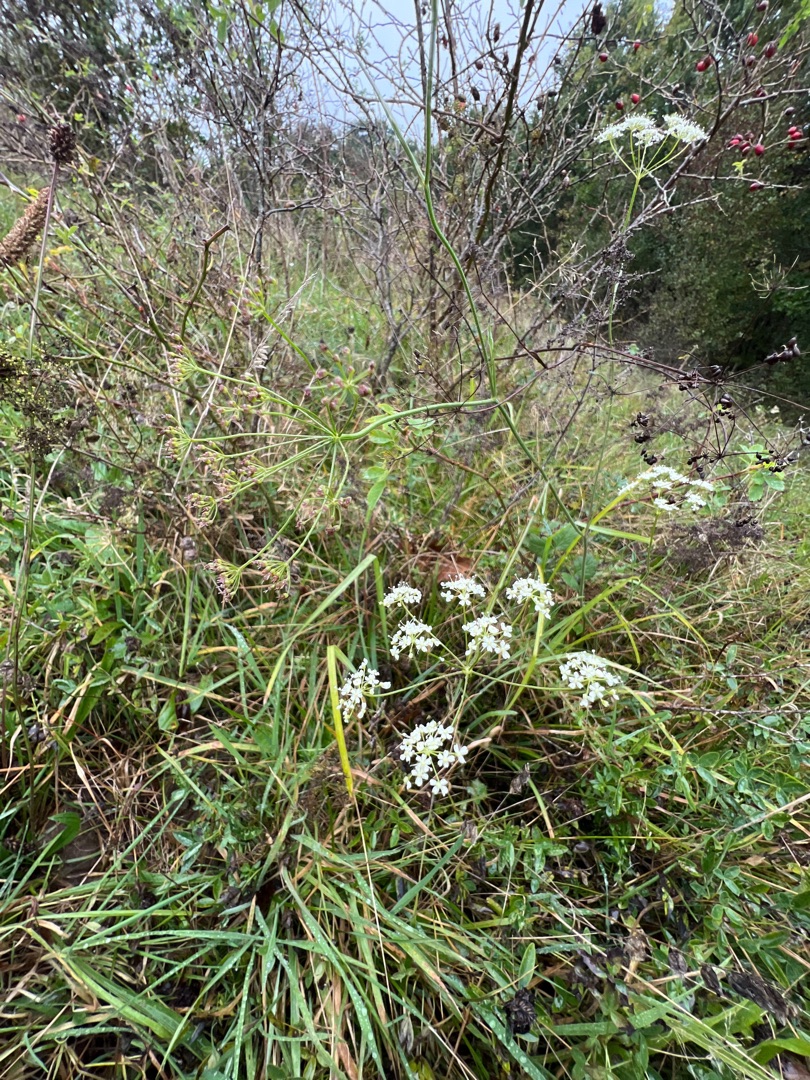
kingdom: Plantae
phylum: Tracheophyta
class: Magnoliopsida
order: Apiales
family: Apiaceae
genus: Pimpinella
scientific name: Pimpinella saxifraga
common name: Almindelig pimpinelle
